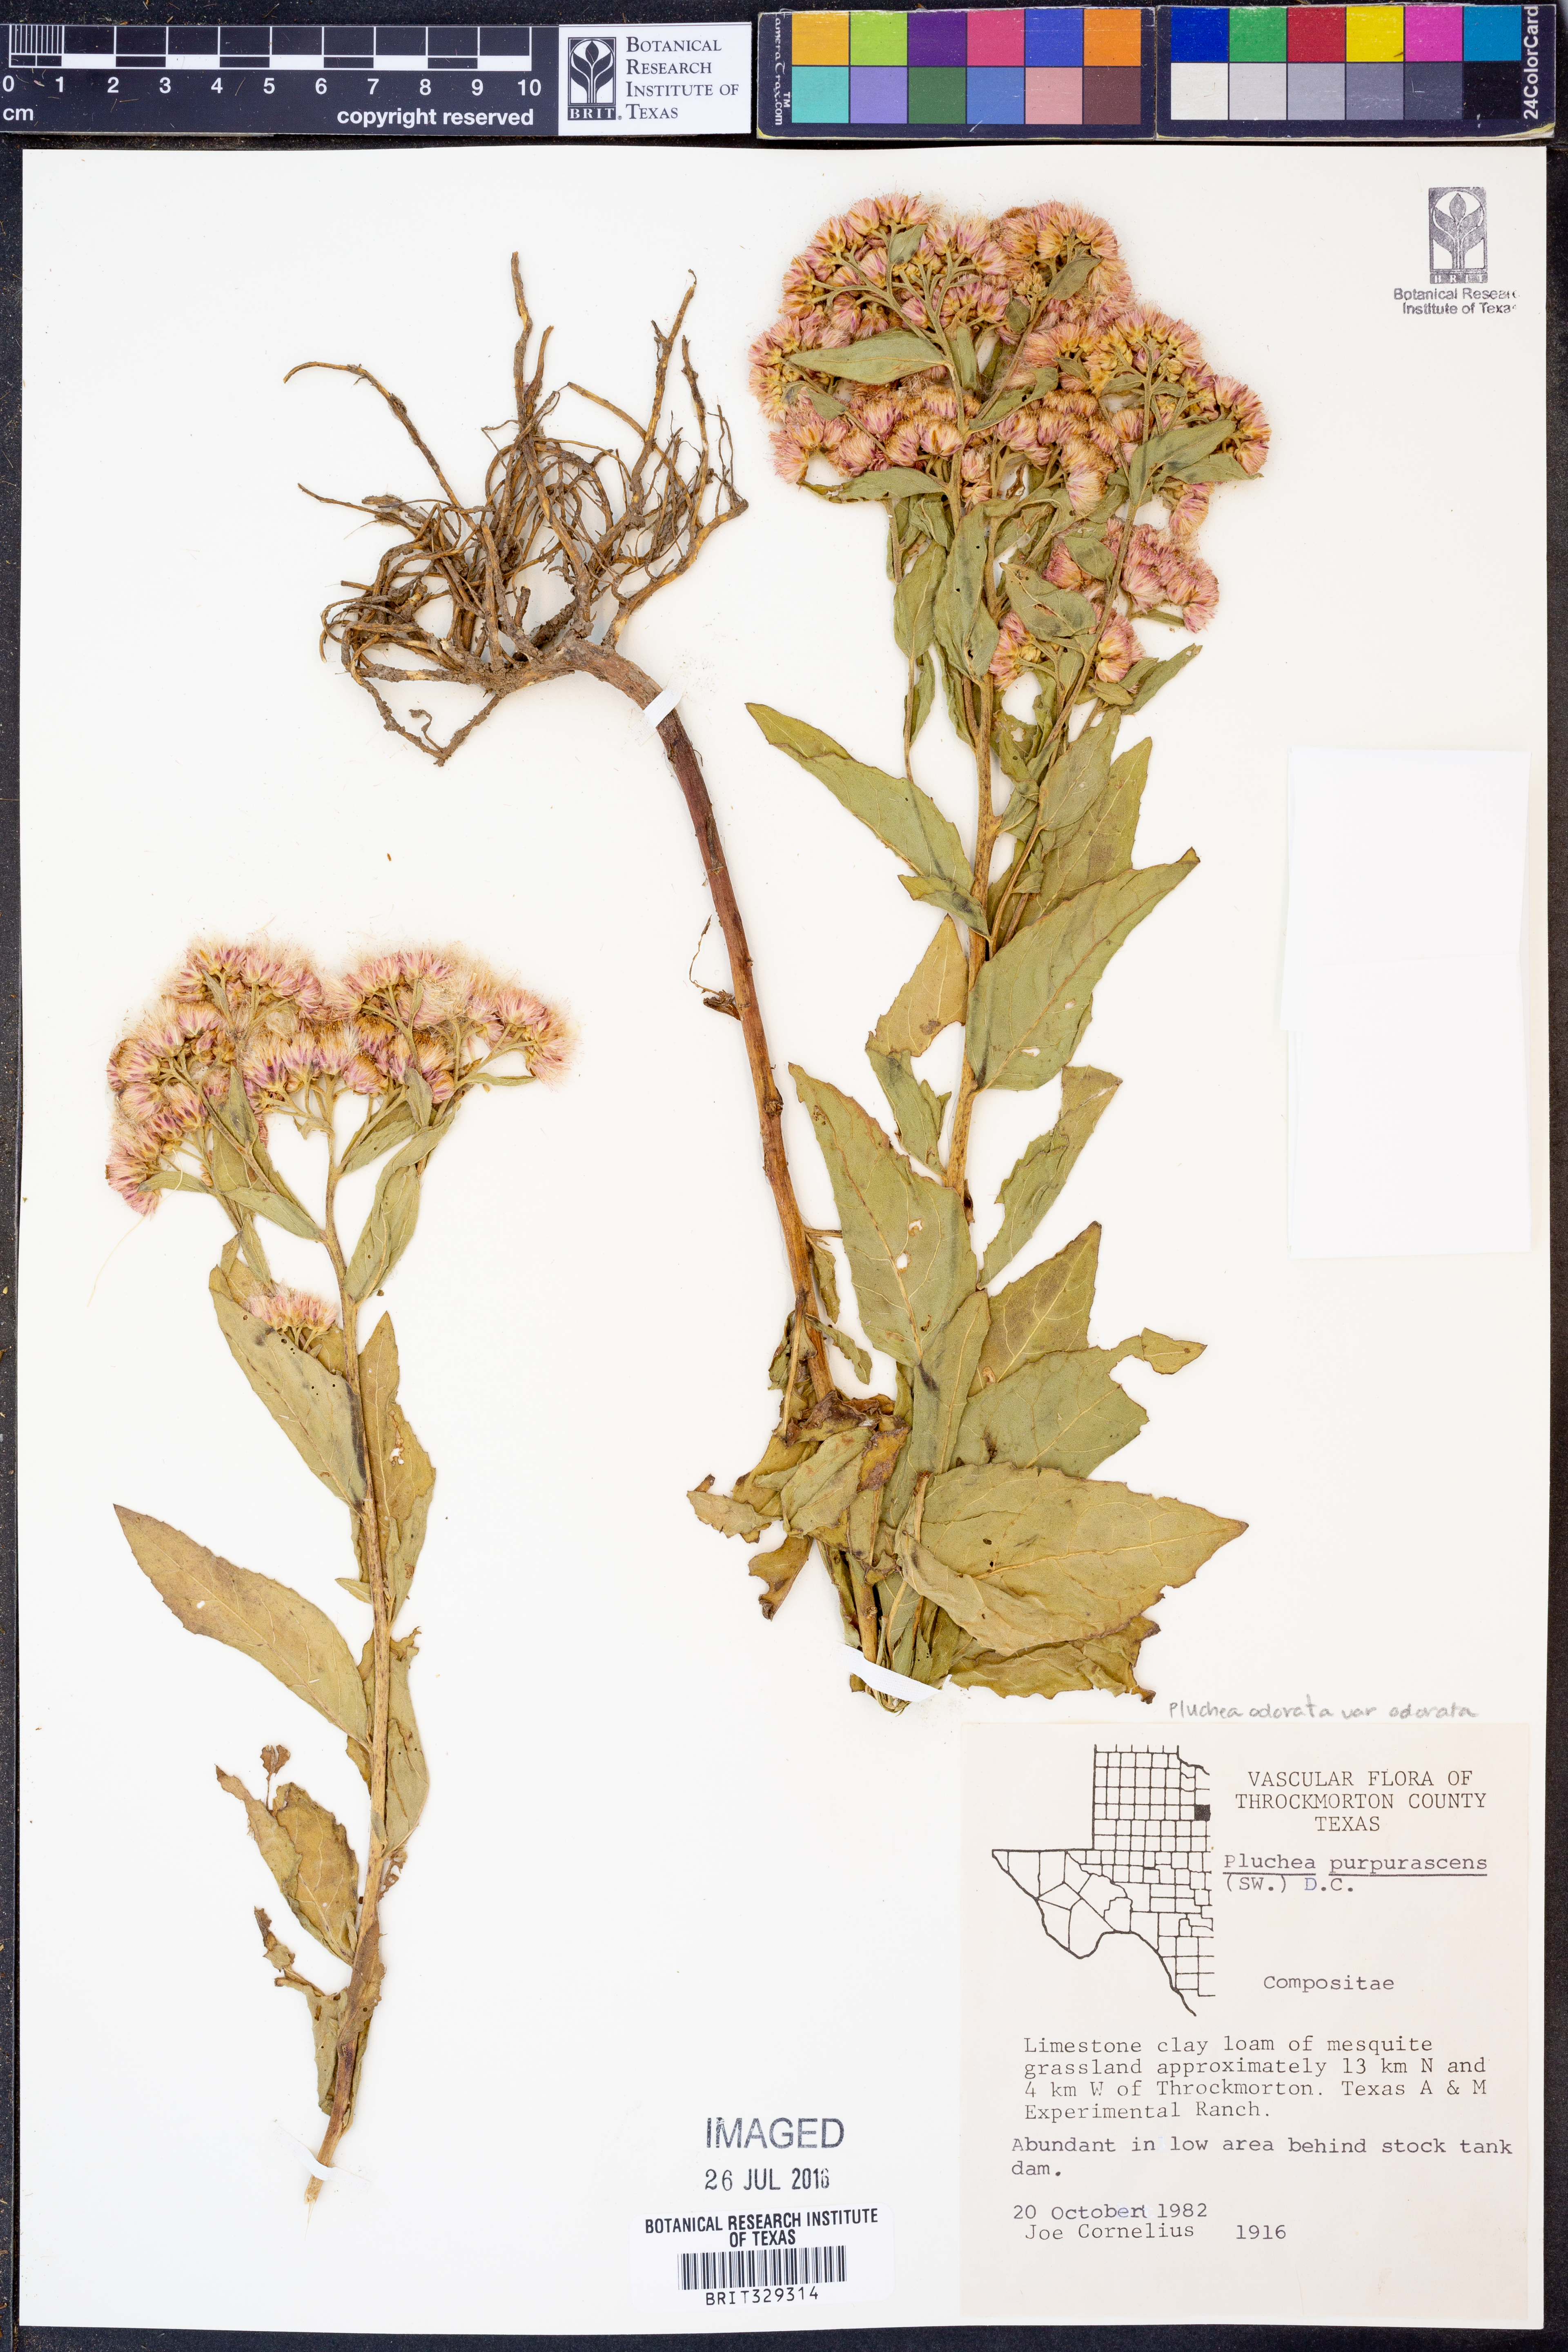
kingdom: Plantae
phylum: Tracheophyta
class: Magnoliopsida
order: Asterales
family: Asteraceae
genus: Pluchea
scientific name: Pluchea odorata
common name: Saltmarsh fleabane
